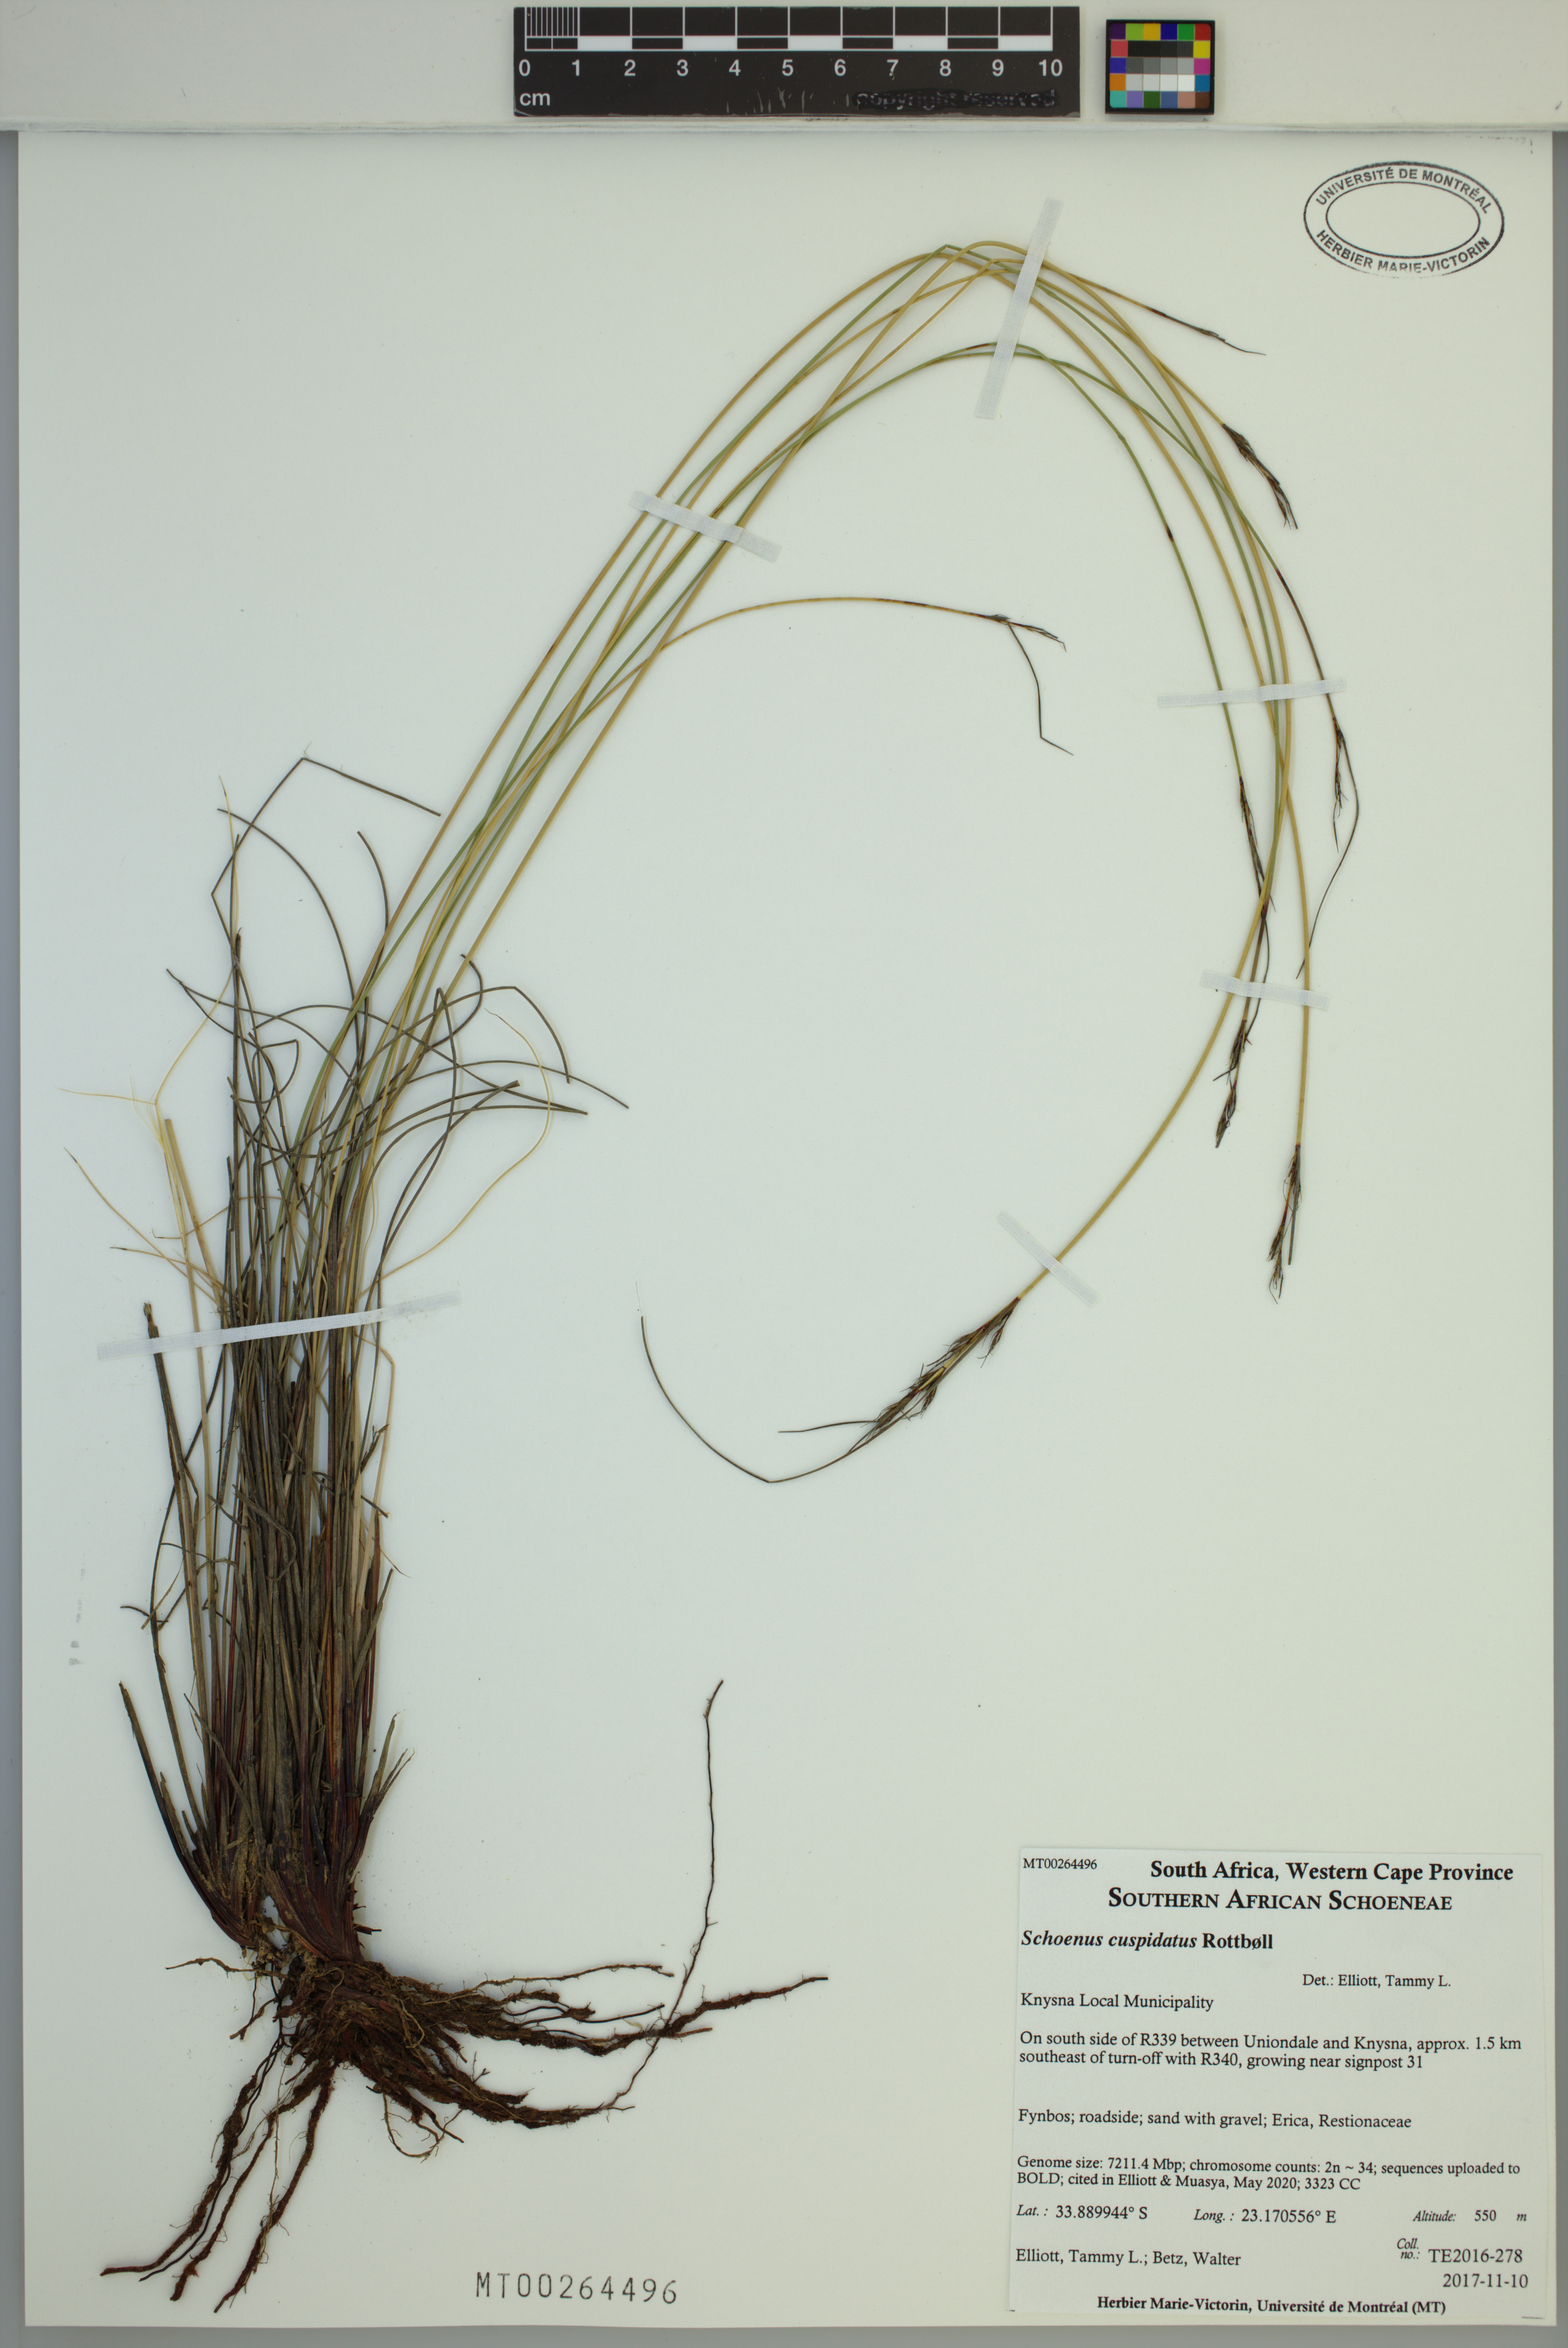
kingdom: Plantae
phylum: Tracheophyta
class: Liliopsida
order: Poales
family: Cyperaceae
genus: Schoenus
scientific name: Schoenus cuspidatus
